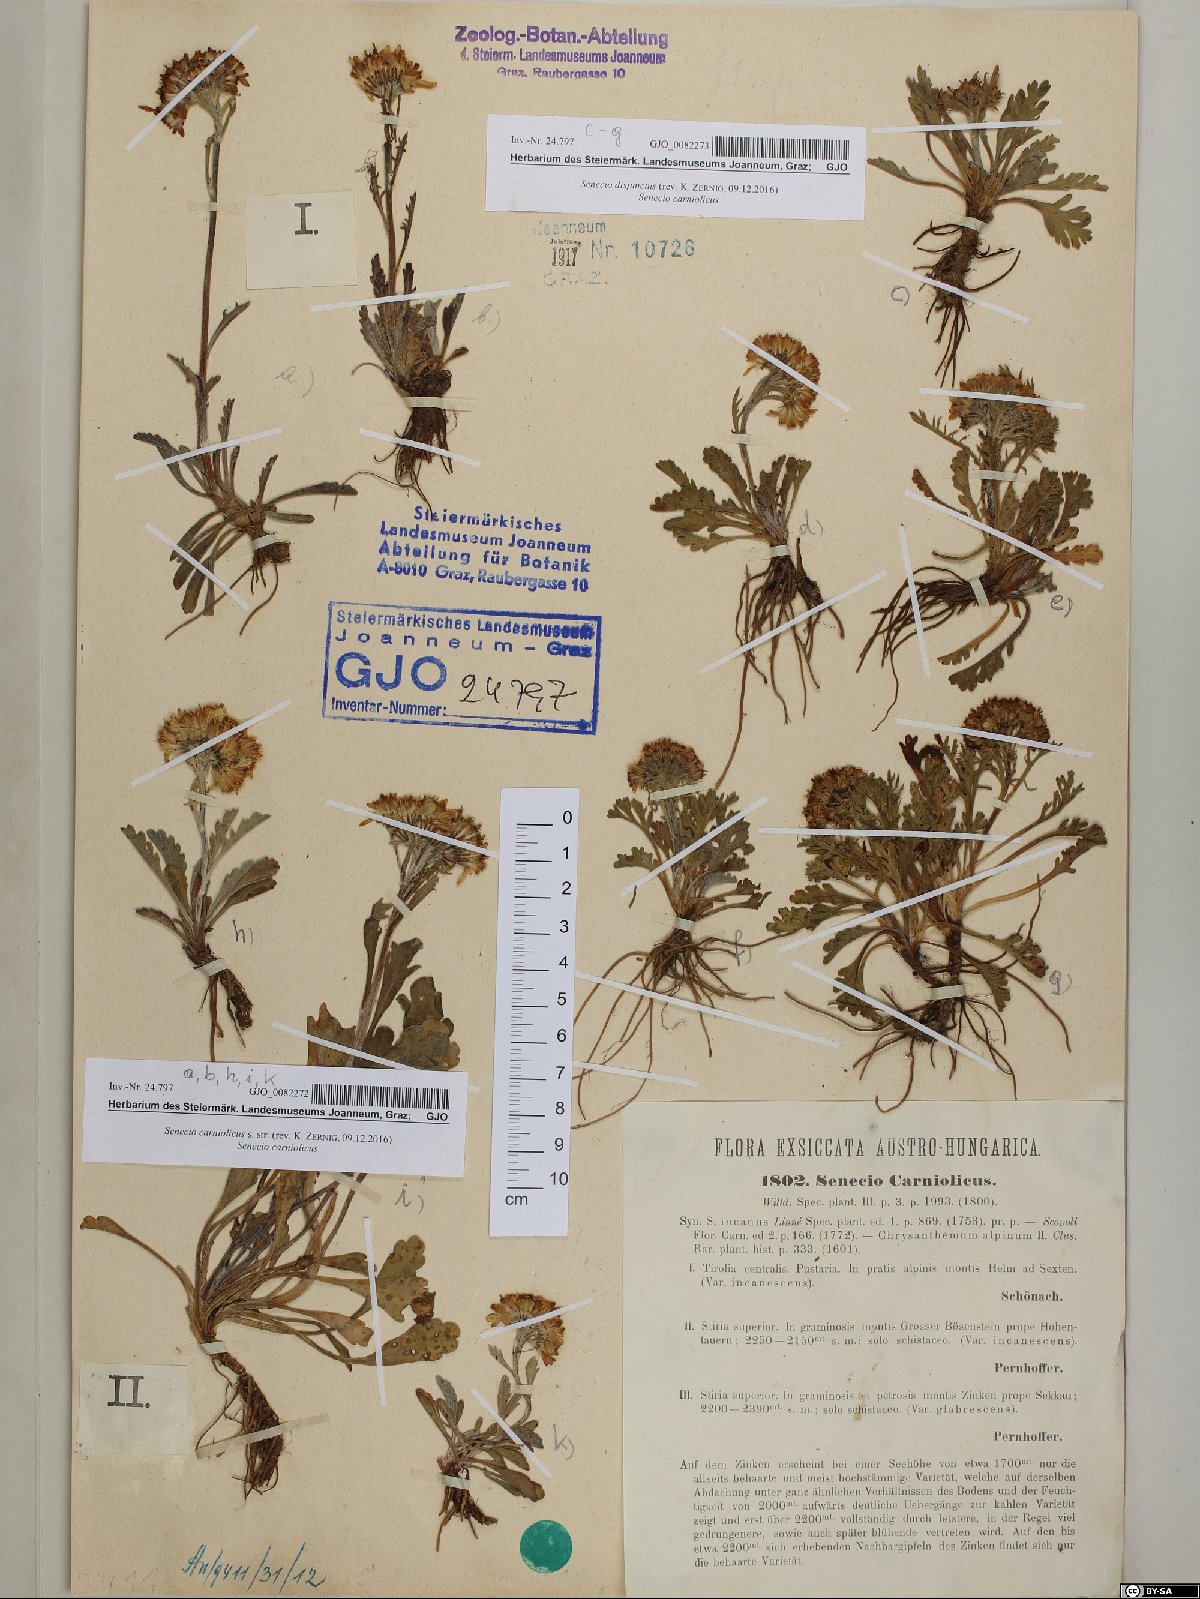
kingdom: Plantae
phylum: Tracheophyta
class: Magnoliopsida
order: Asterales
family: Asteraceae
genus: Jacobaea
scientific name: Jacobaea carniolica
